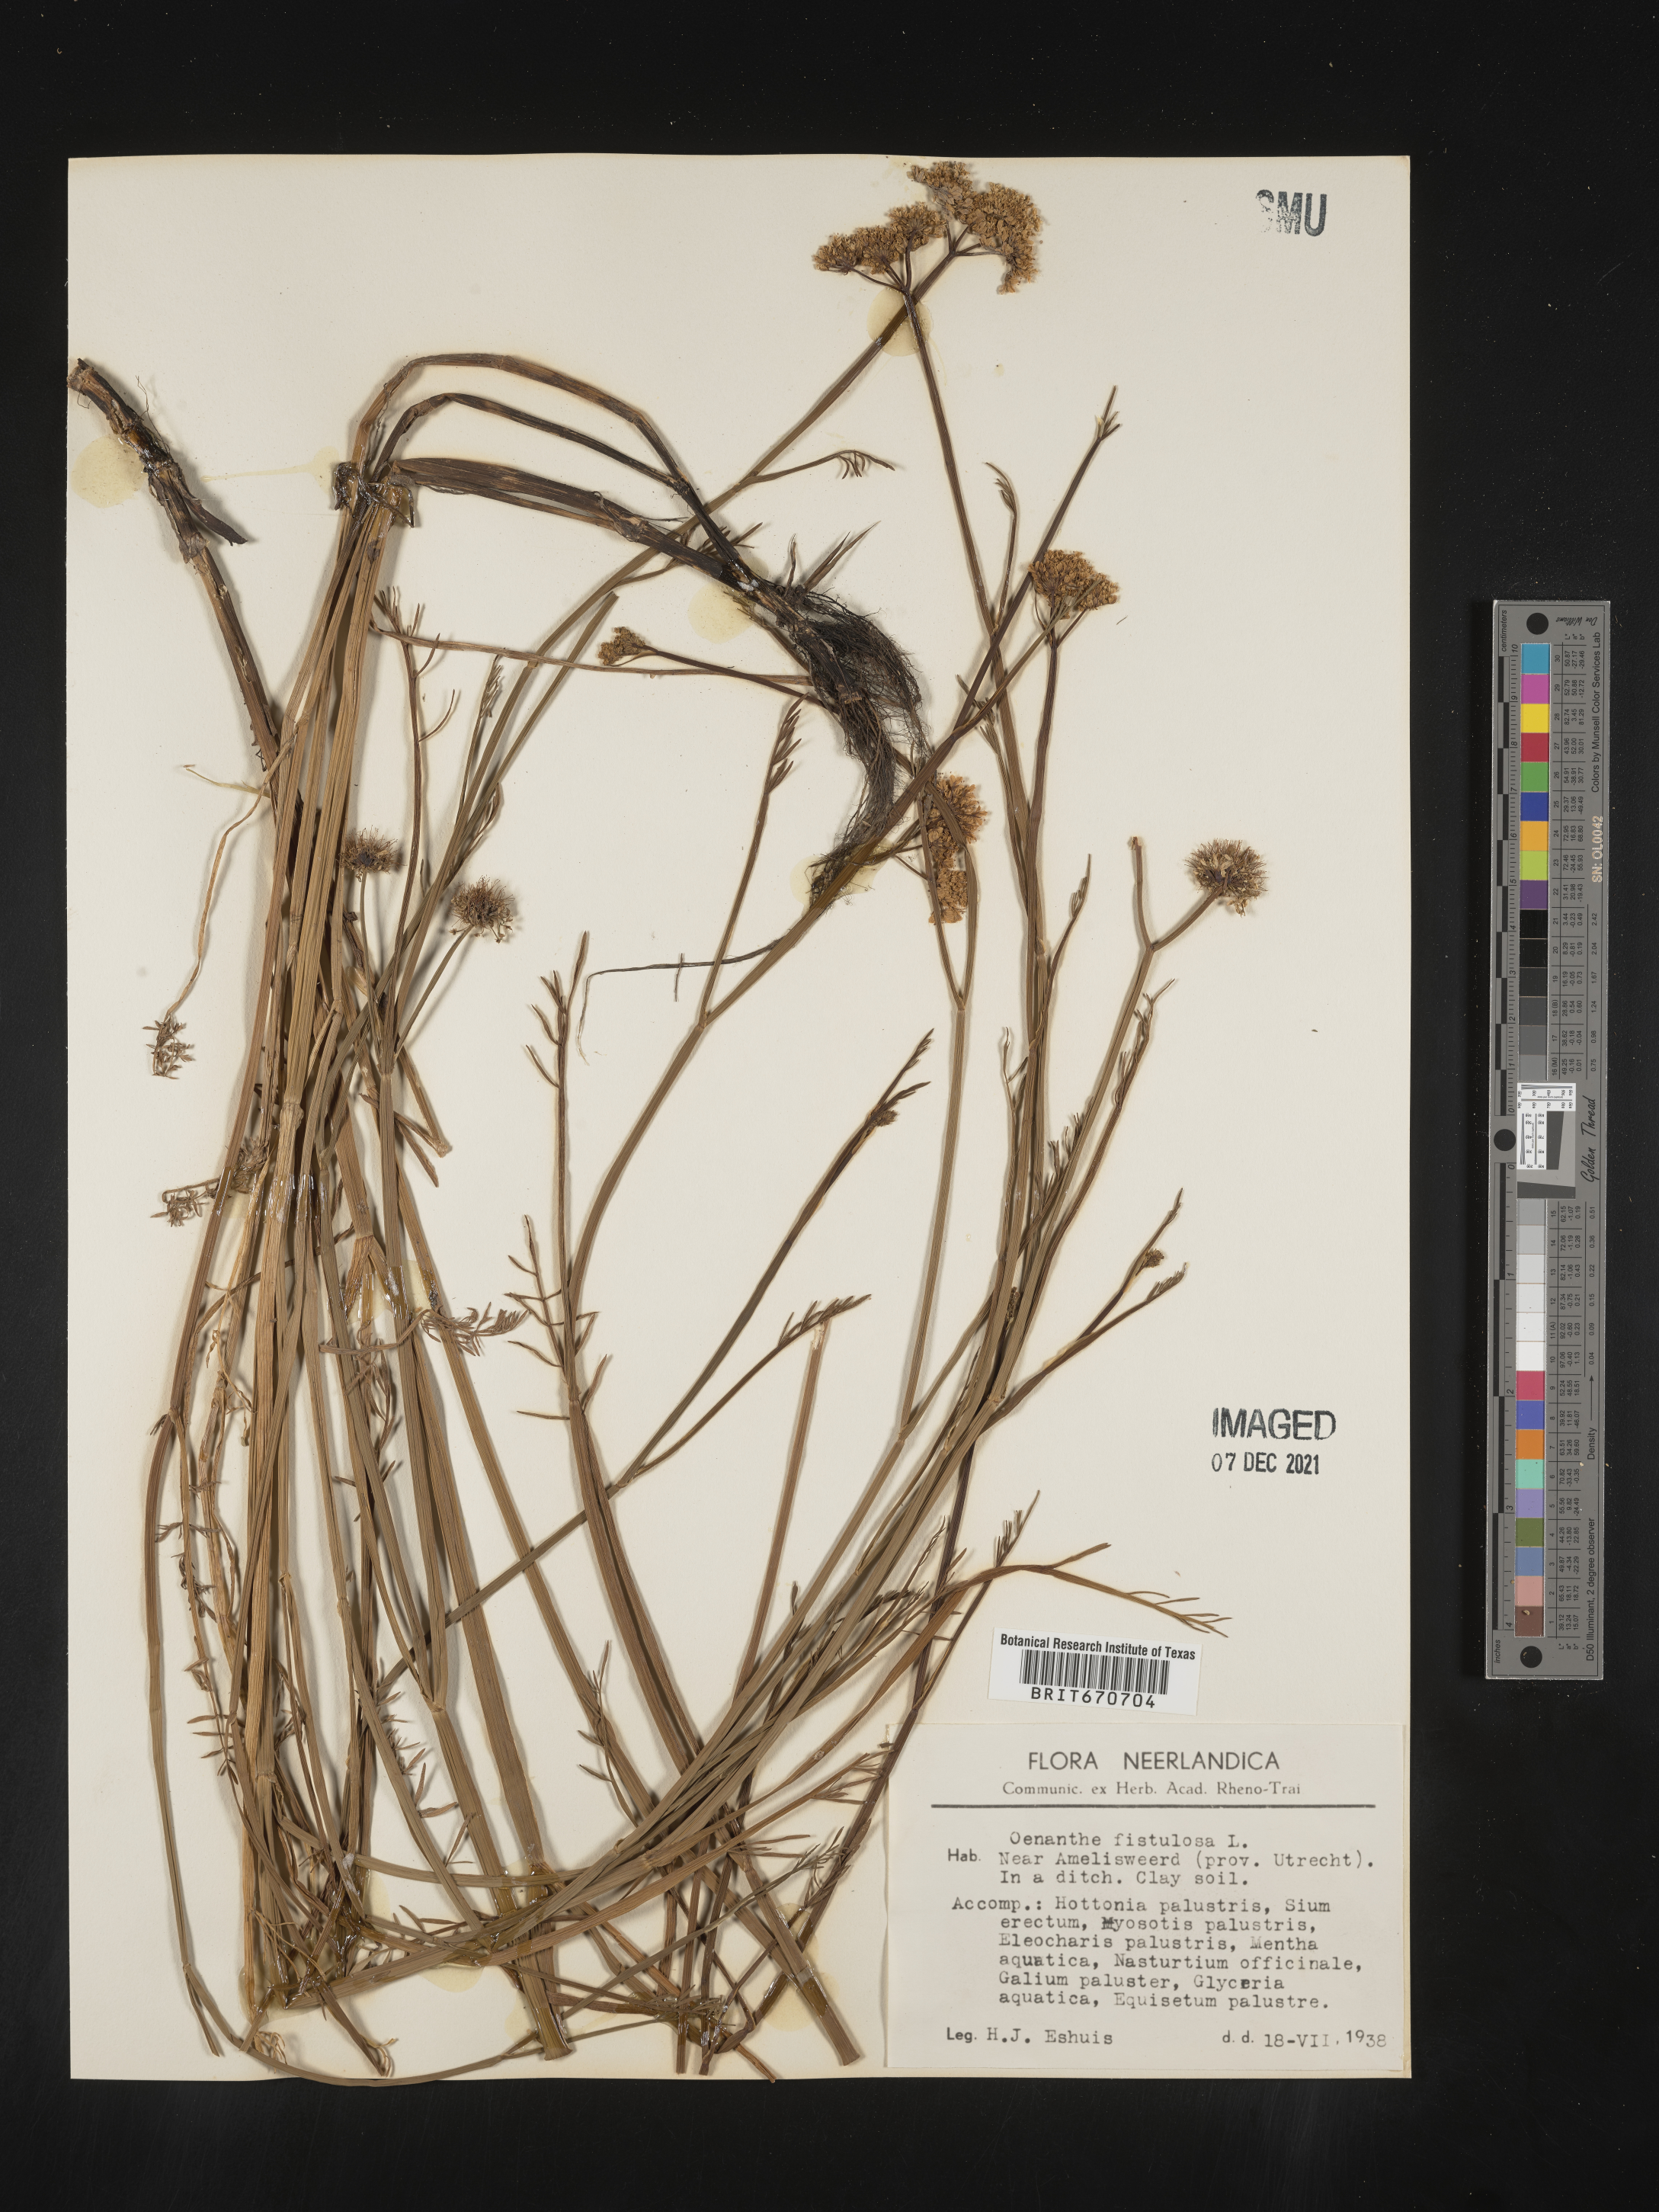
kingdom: Plantae
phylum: Tracheophyta
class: Magnoliopsida
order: Apiales
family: Apiaceae
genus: Oenanthe
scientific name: Oenanthe
